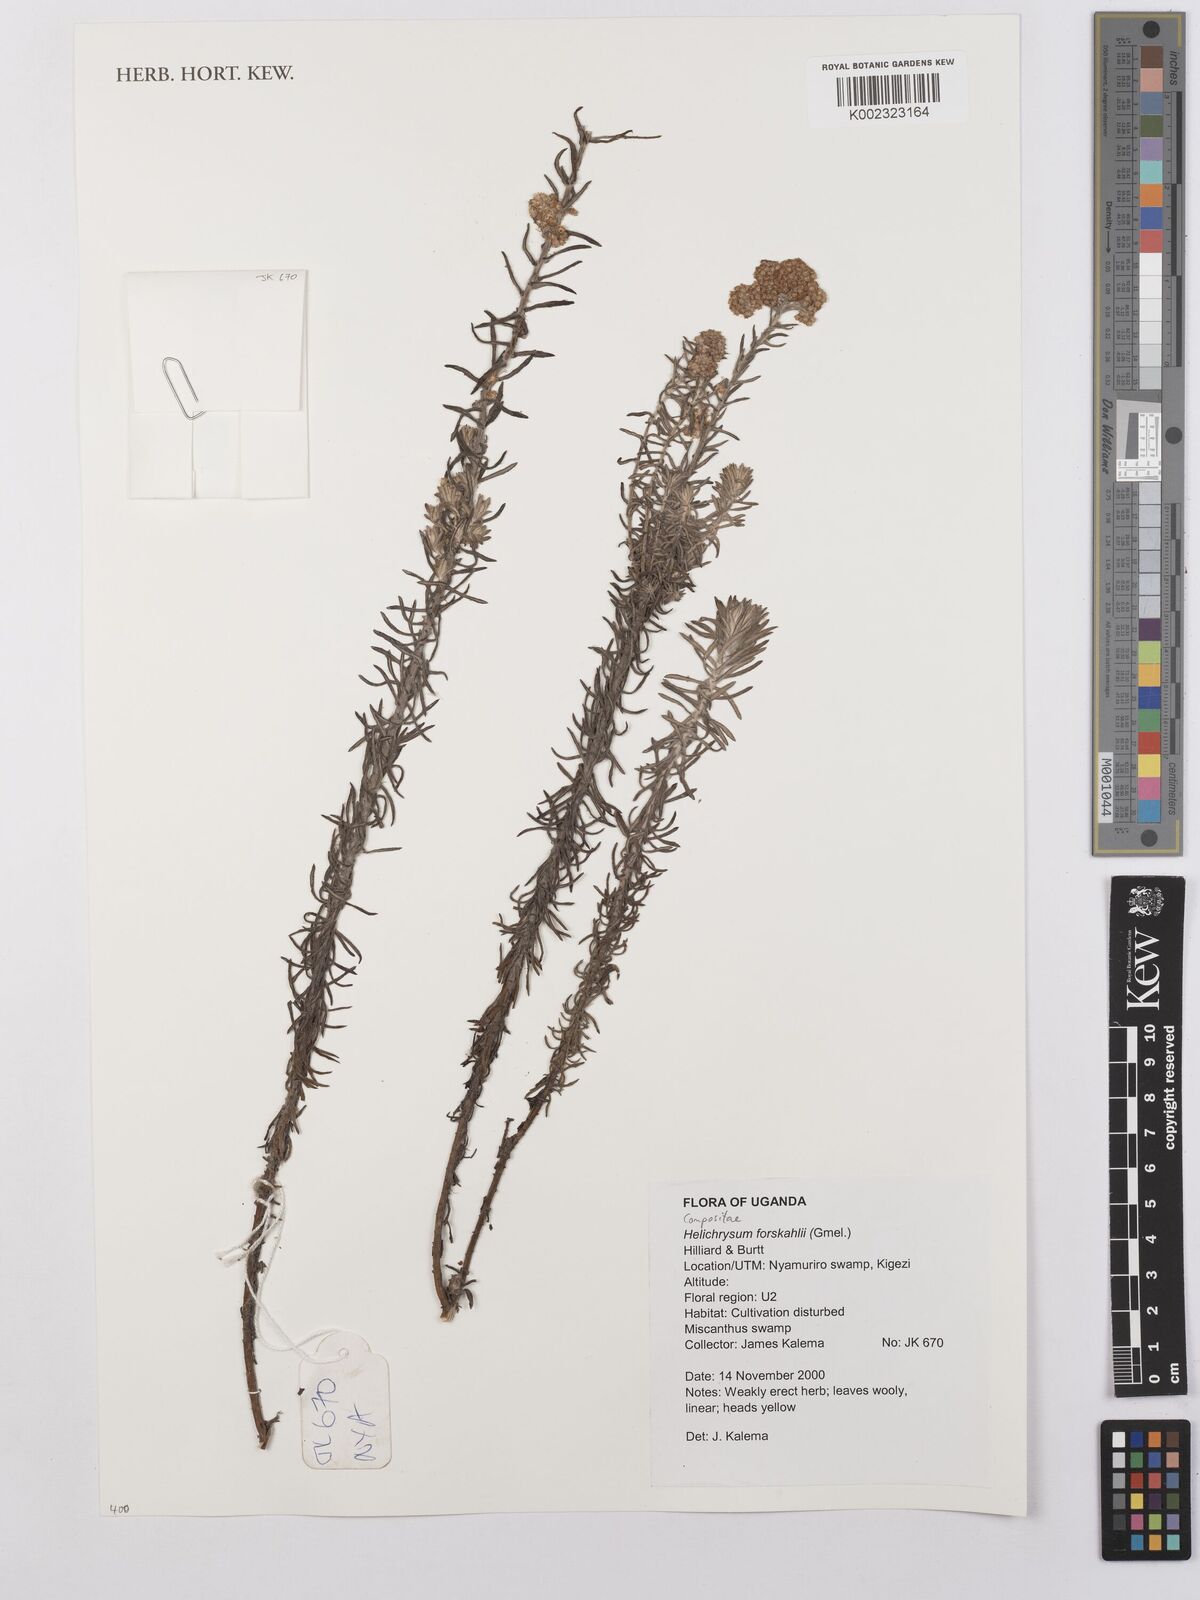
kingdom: Plantae
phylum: Tracheophyta
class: Magnoliopsida
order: Asterales
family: Asteraceae
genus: Helichrysum
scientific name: Helichrysum forskahlii
